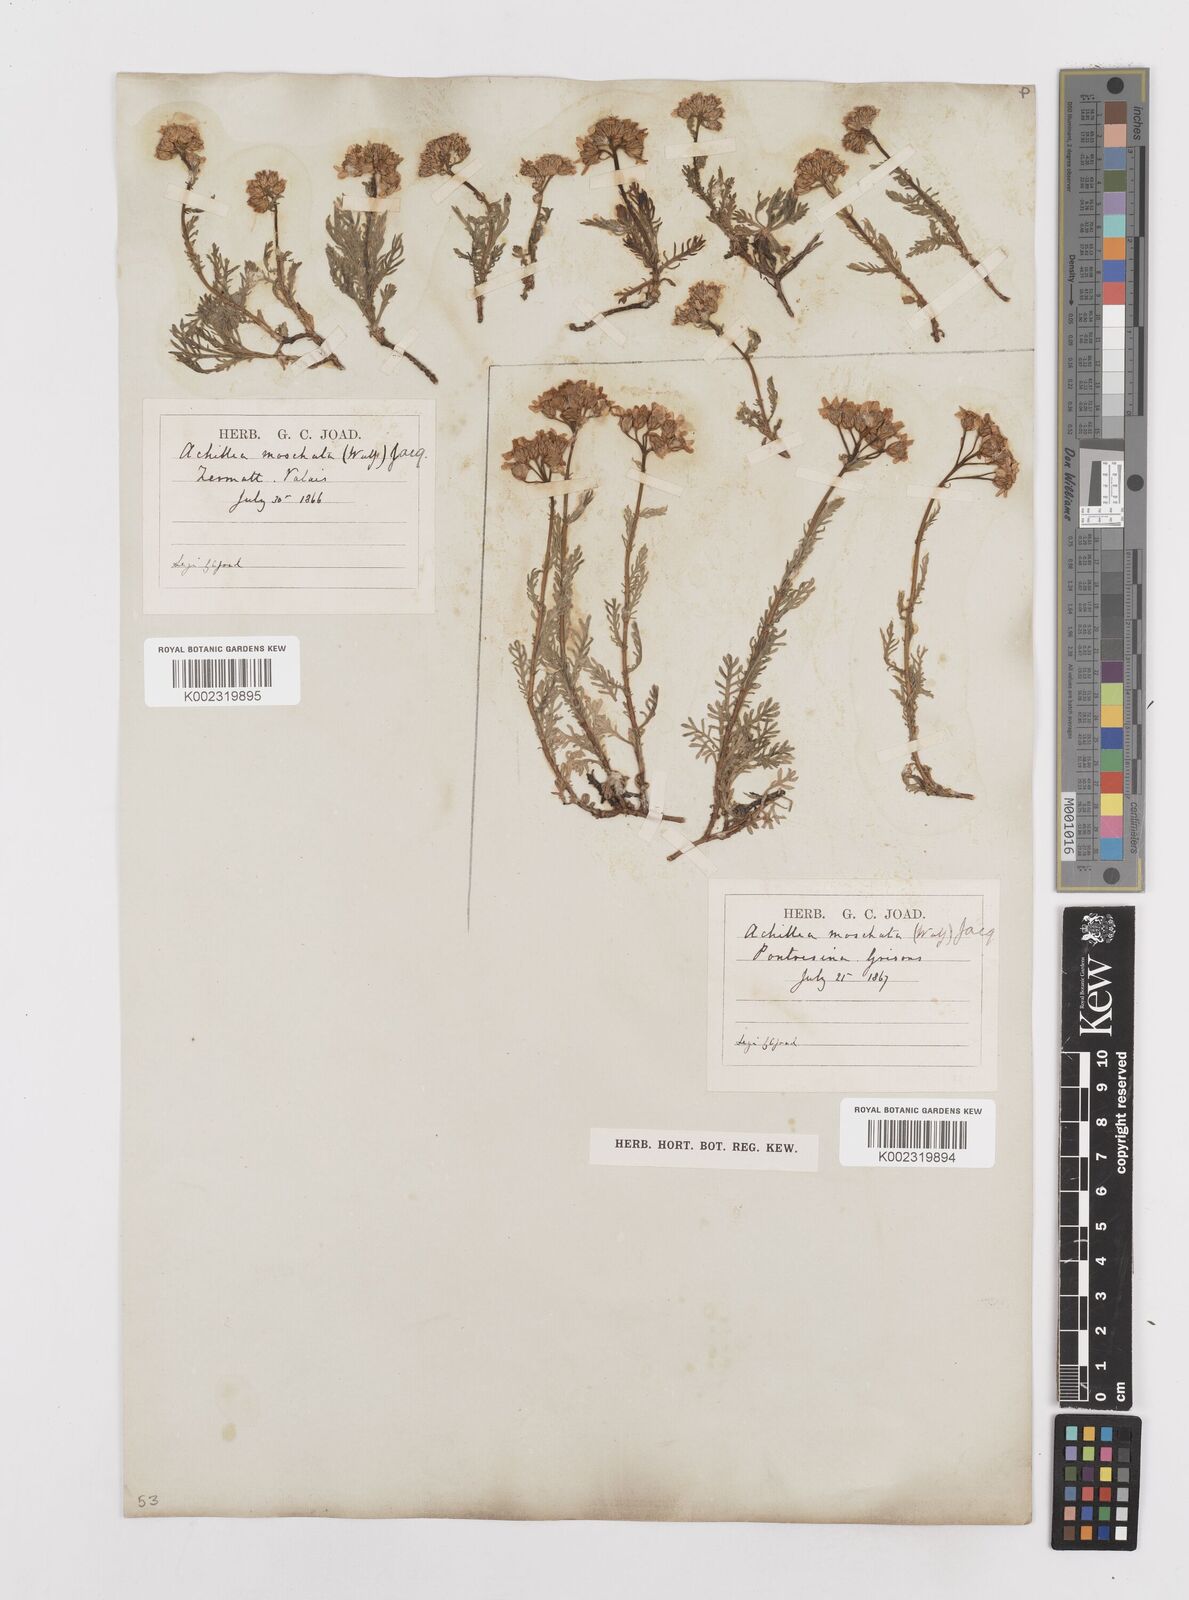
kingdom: Plantae
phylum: Tracheophyta
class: Magnoliopsida
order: Asterales
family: Asteraceae
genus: Achillea
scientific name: Achillea erba-rotta
